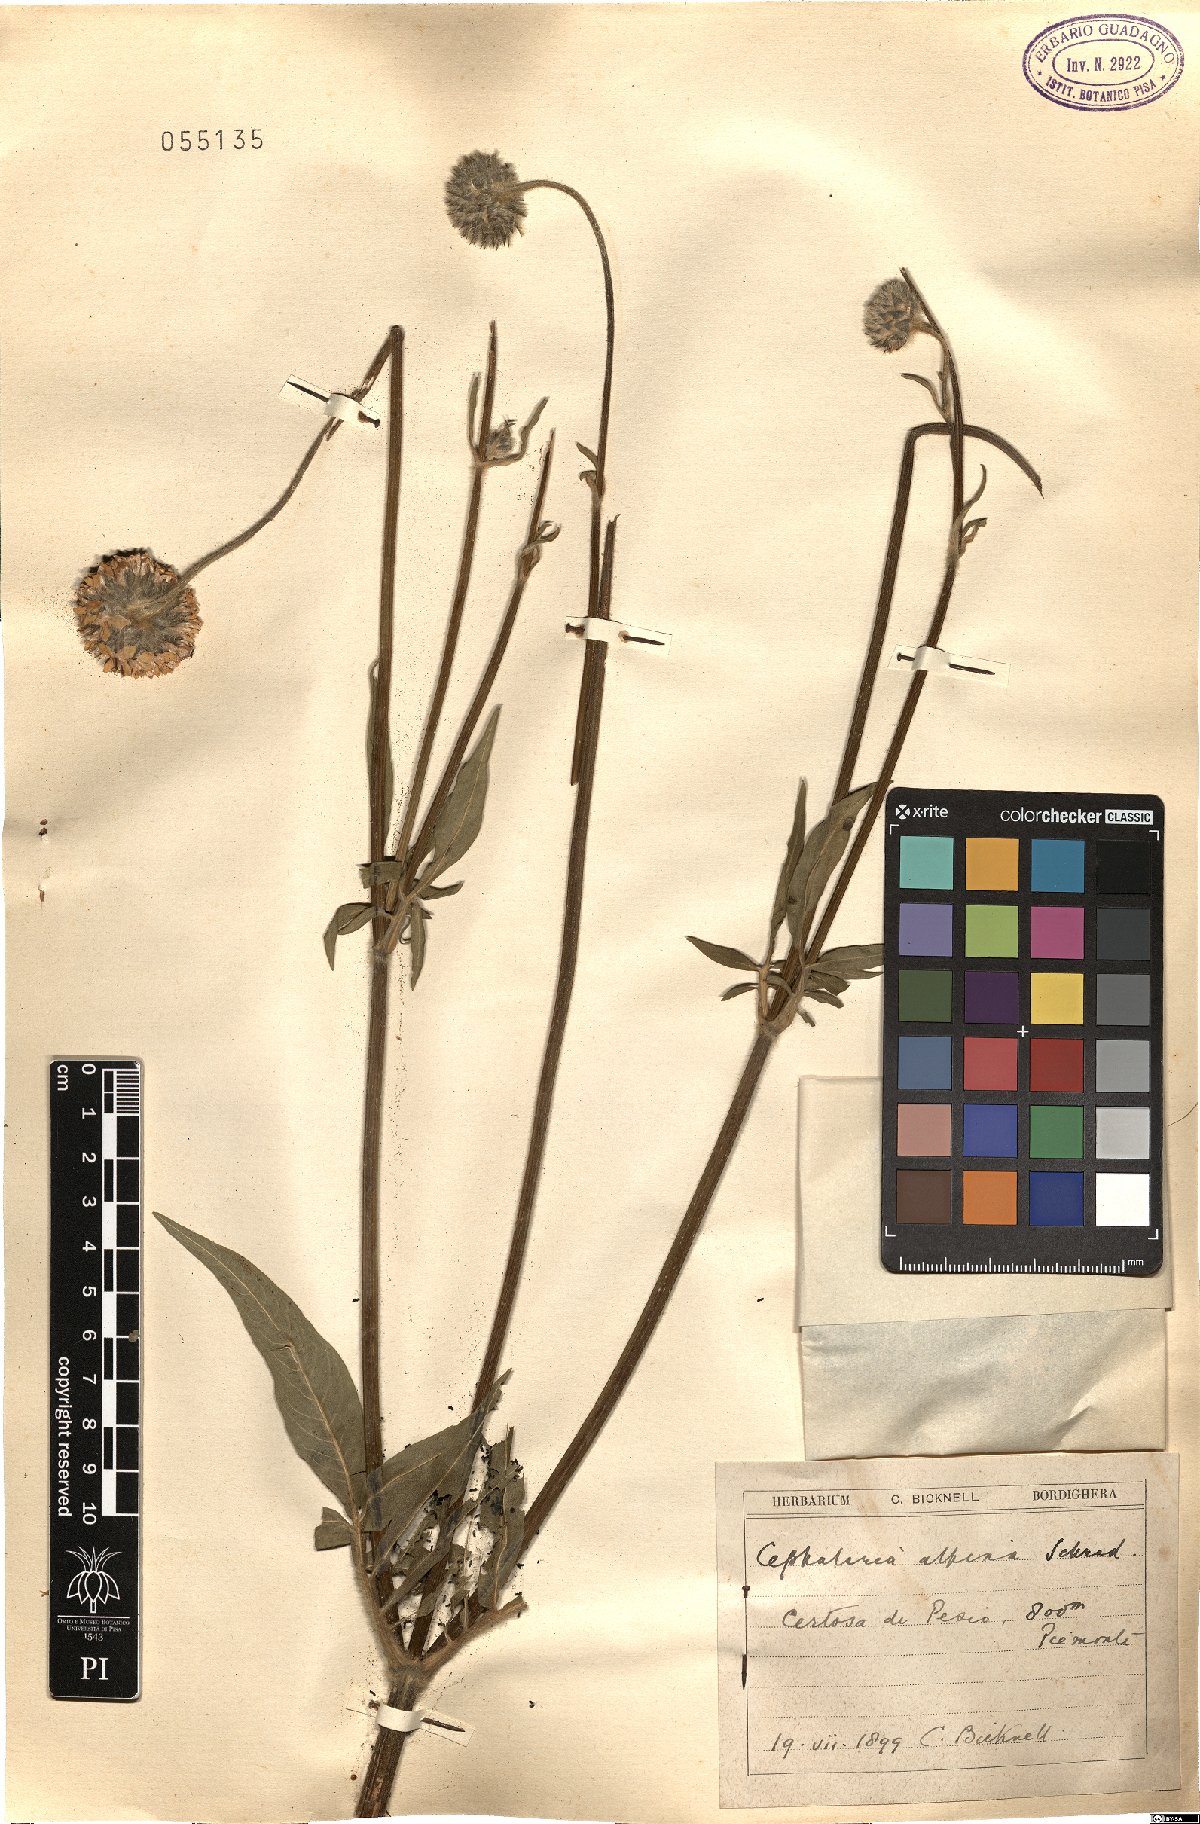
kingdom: Plantae
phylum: Tracheophyta
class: Magnoliopsida
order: Dipsacales
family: Caprifoliaceae
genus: Cephalaria
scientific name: Cephalaria alpina
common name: Alpine-scabious
